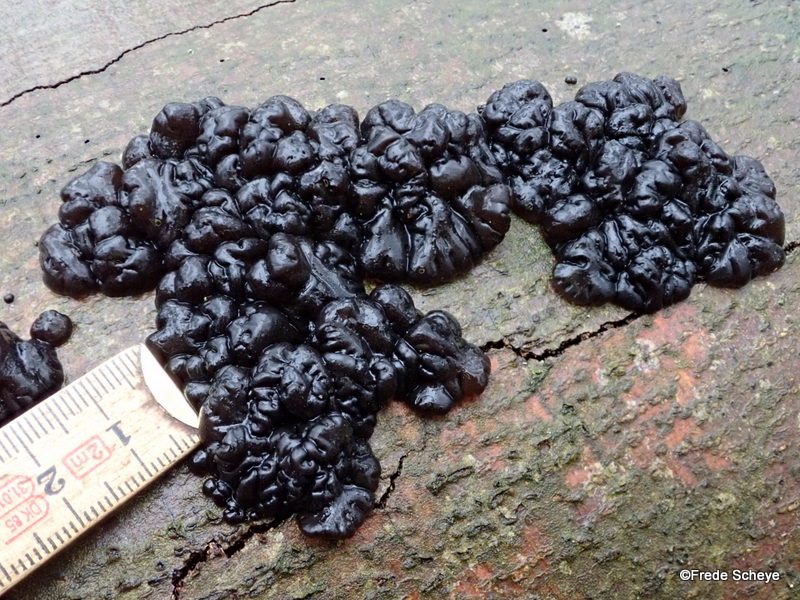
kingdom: Fungi
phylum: Basidiomycota
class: Agaricomycetes
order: Auriculariales
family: Auriculariaceae
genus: Exidia
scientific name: Exidia nigricans
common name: almindelig bævretop
